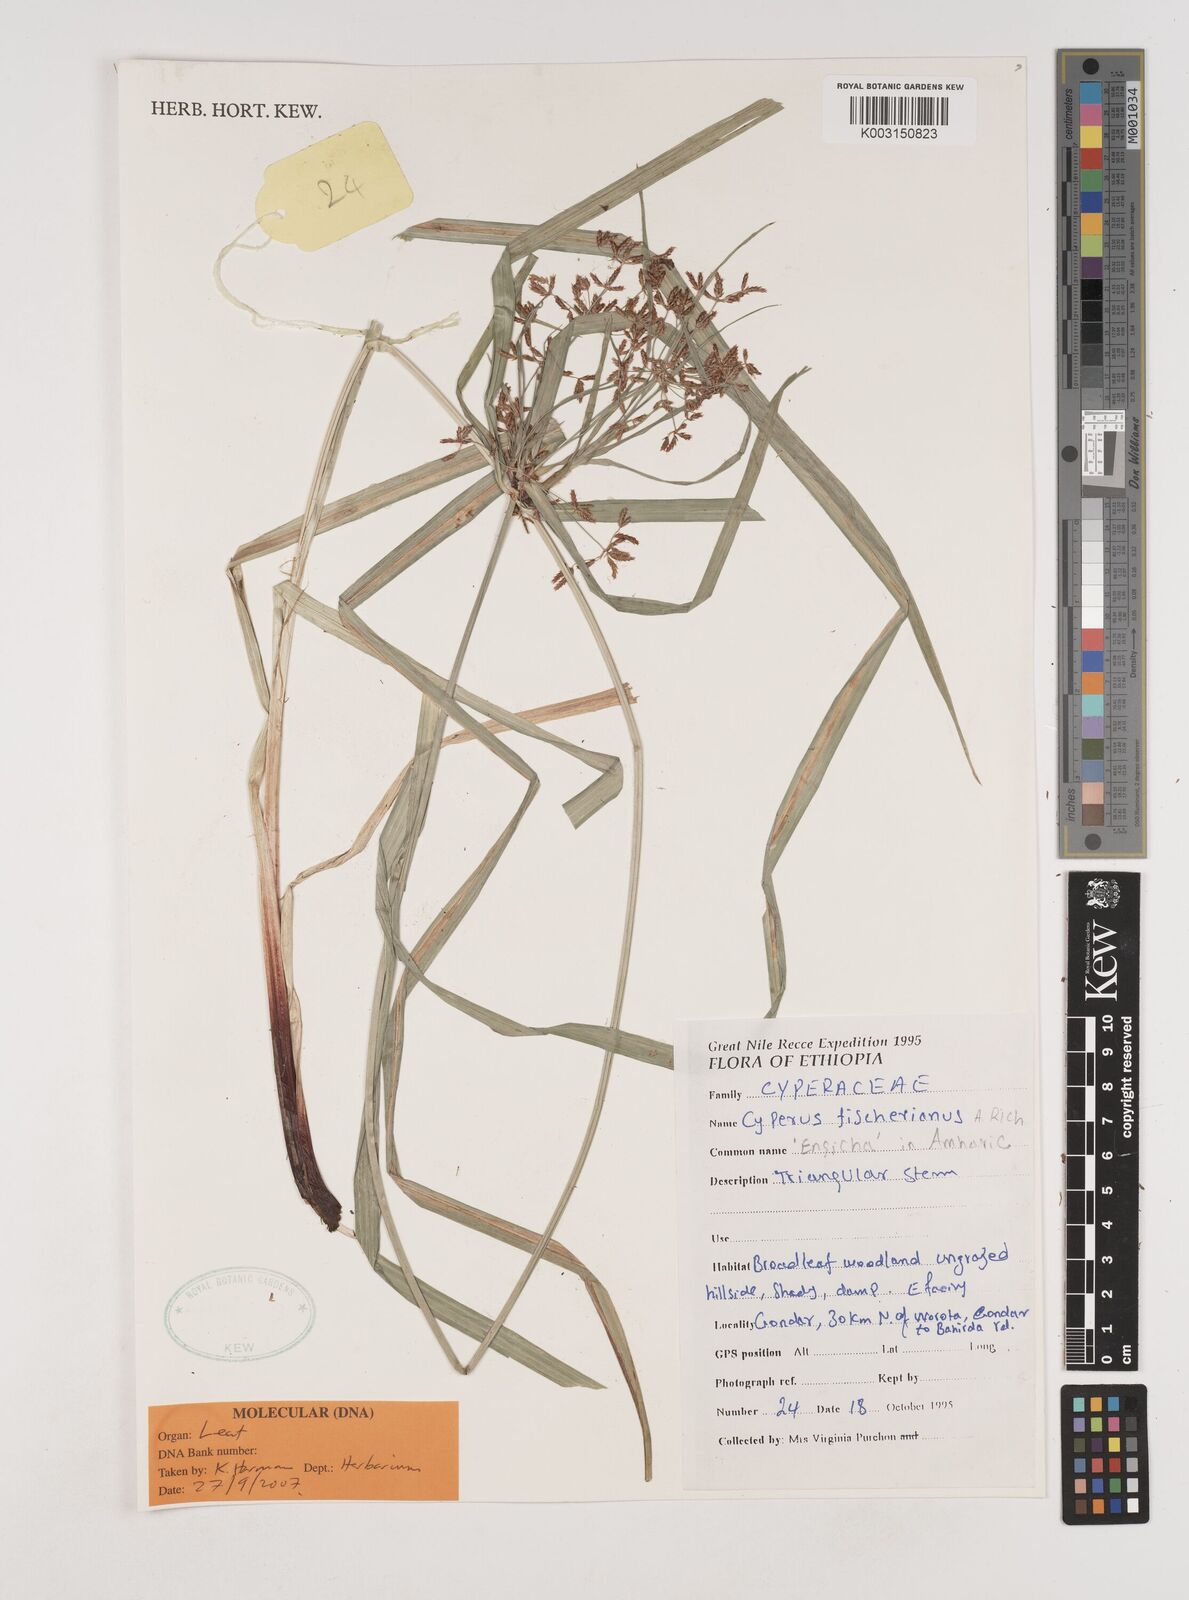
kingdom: Plantae
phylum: Tracheophyta
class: Liliopsida
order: Poales
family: Cyperaceae
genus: Cyperus
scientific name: Cyperus fischerianus
